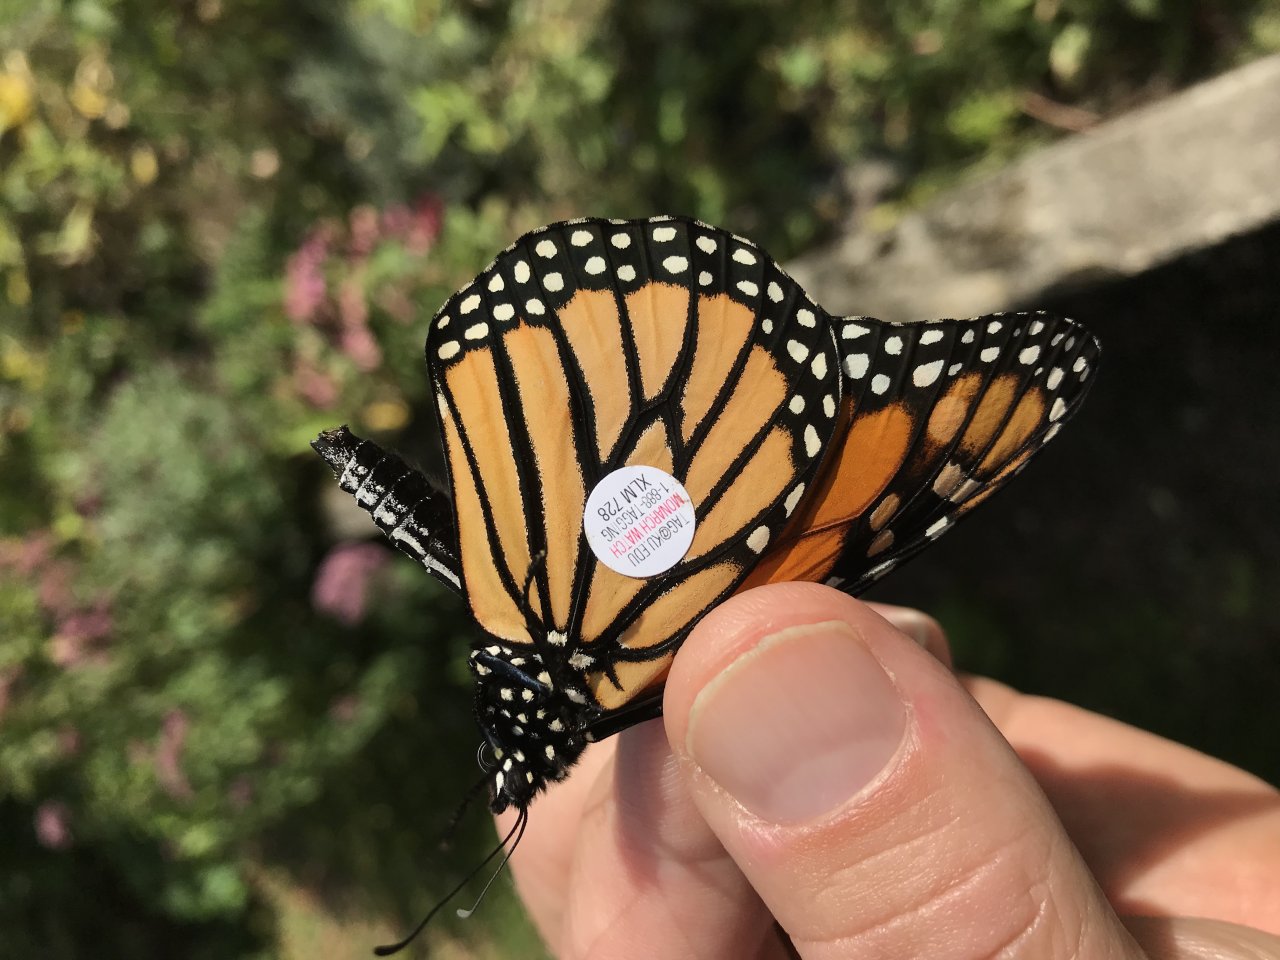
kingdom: Animalia
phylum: Arthropoda
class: Insecta
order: Lepidoptera
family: Nymphalidae
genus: Danaus
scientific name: Danaus plexippus
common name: Monarch
